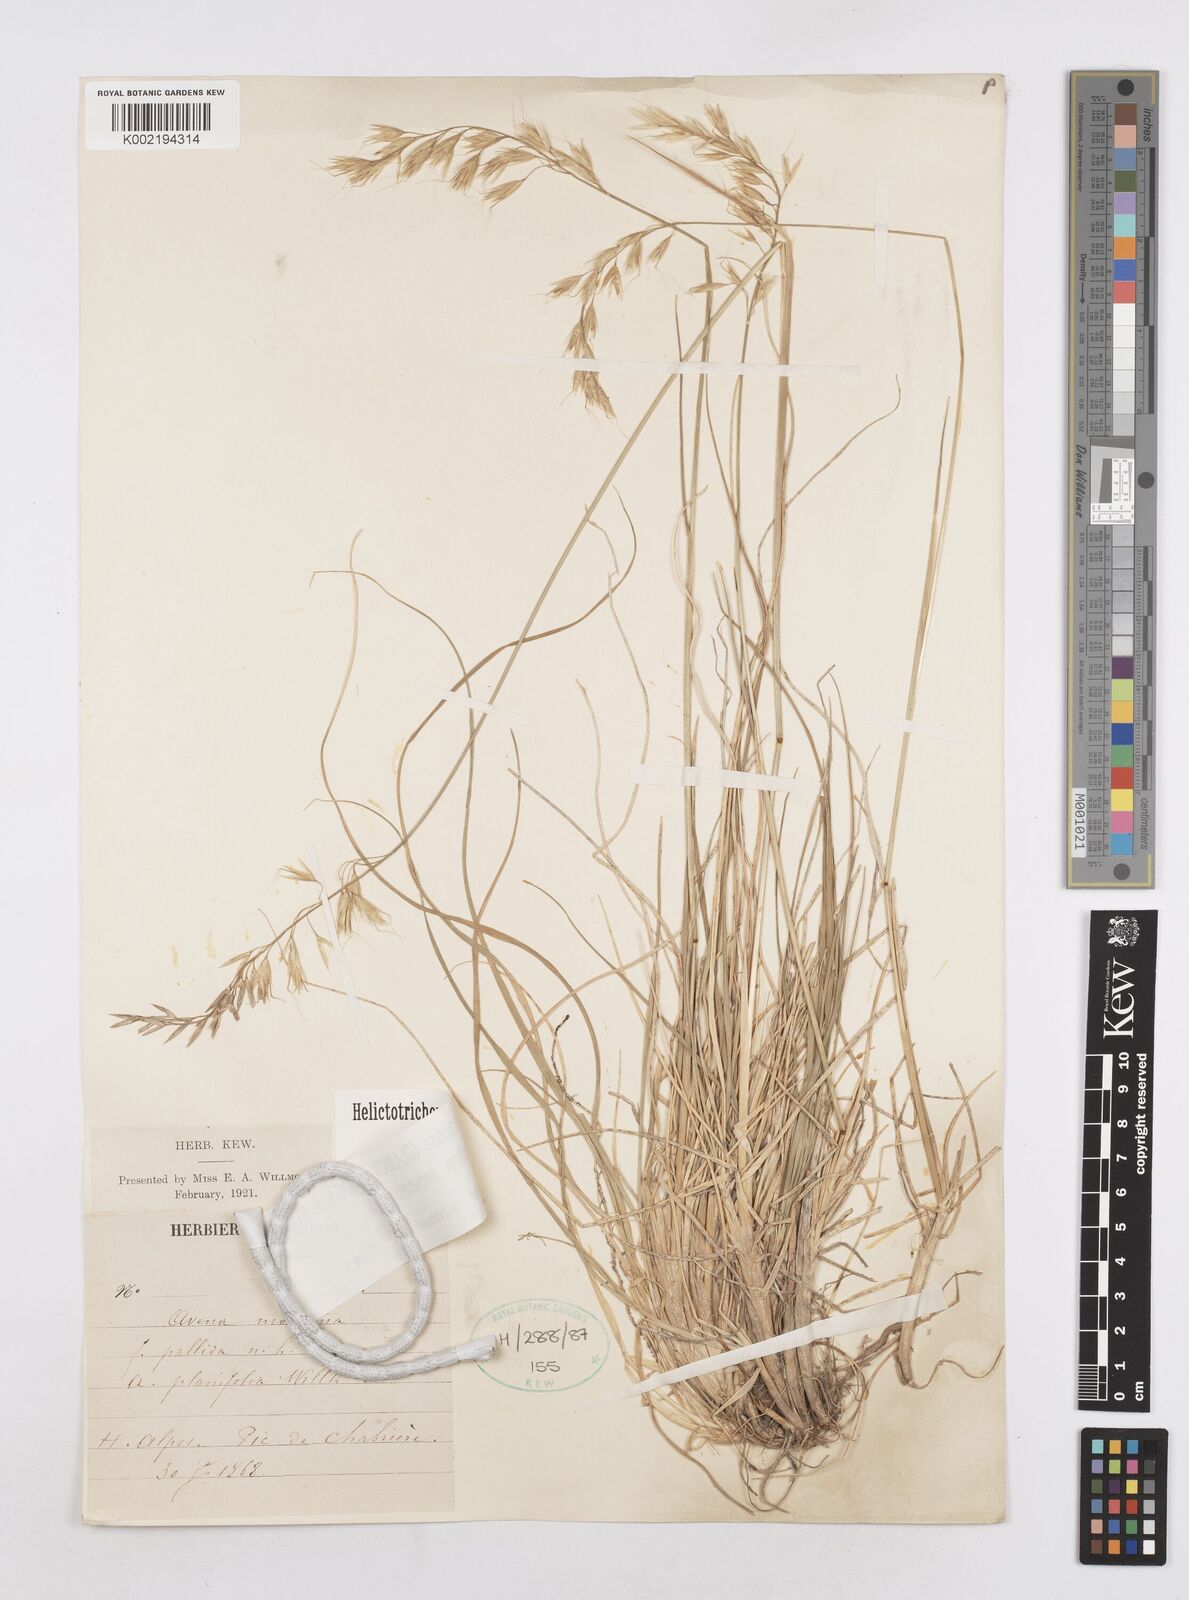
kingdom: Plantae
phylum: Tracheophyta
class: Liliopsida
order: Poales
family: Poaceae
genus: Helictotrichon
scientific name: Helictotrichon sedenense
